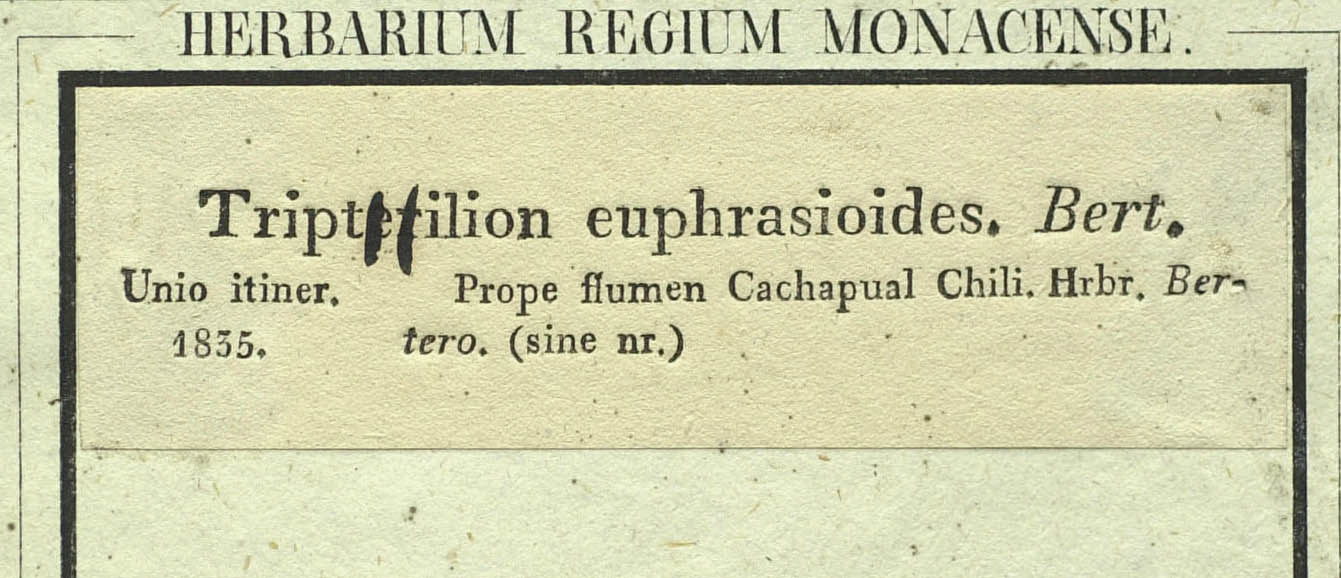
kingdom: Plantae
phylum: Tracheophyta
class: Magnoliopsida
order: Asterales
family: Asteraceae
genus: Triptilion
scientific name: Triptilion achilleae
